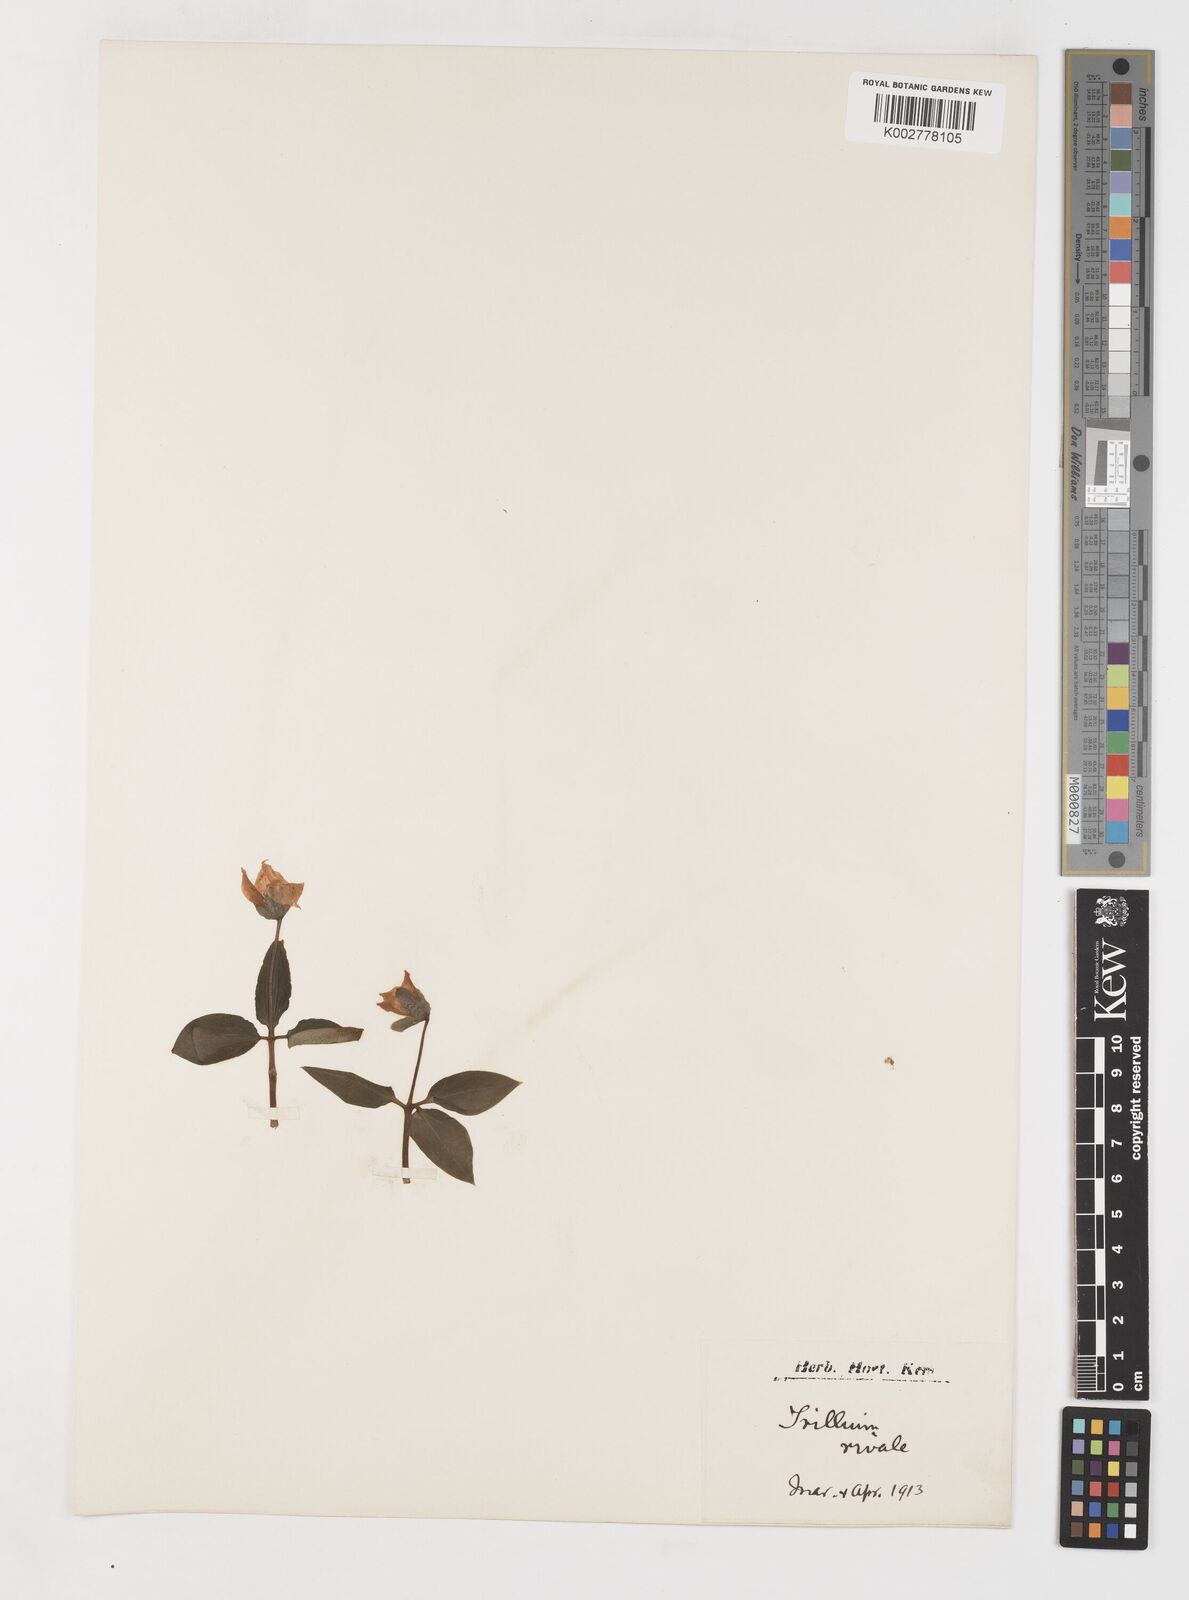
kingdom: Plantae
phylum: Tracheophyta
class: Liliopsida
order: Liliales
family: Melanthiaceae
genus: Pseudotrillium
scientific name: Pseudotrillium rivale
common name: Brook wakerobin
